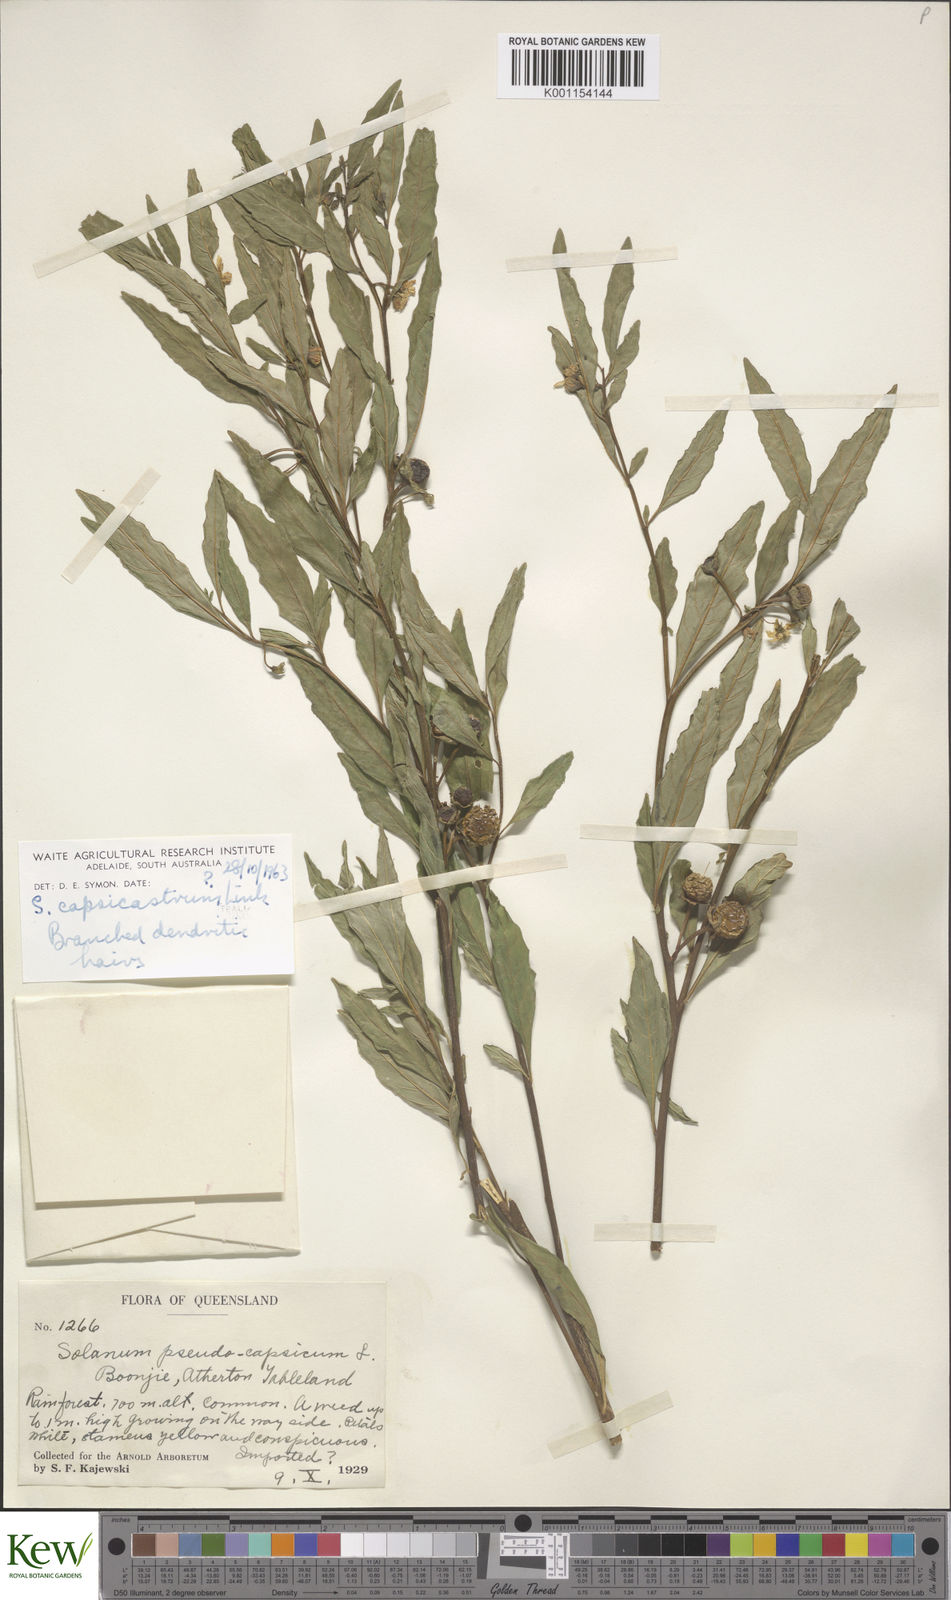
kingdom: Plantae
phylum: Tracheophyta
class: Magnoliopsida
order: Solanales
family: Solanaceae
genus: Solanum
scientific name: Solanum pseudocapsicum
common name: Jerusalem cherry
